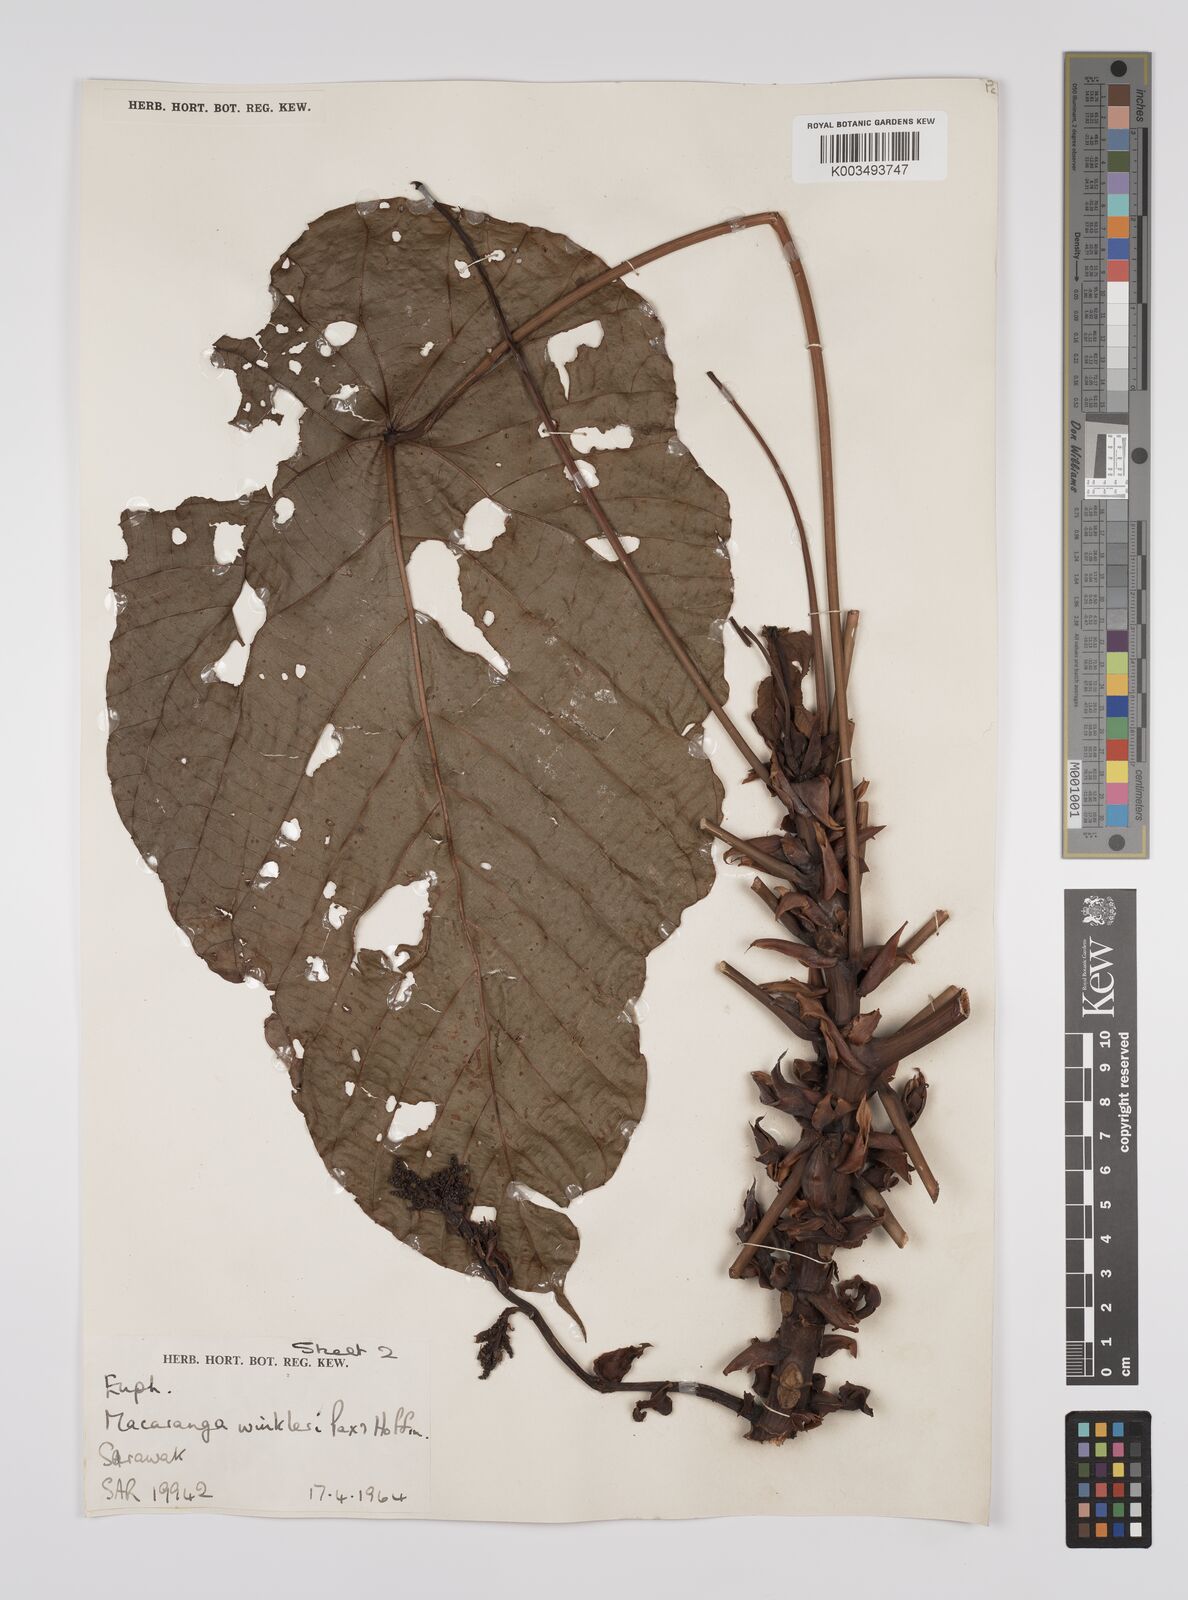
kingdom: Plantae
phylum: Tracheophyta
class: Magnoliopsida
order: Malpighiales
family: Euphorbiaceae
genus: Macaranga
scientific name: Macaranga winkleri
